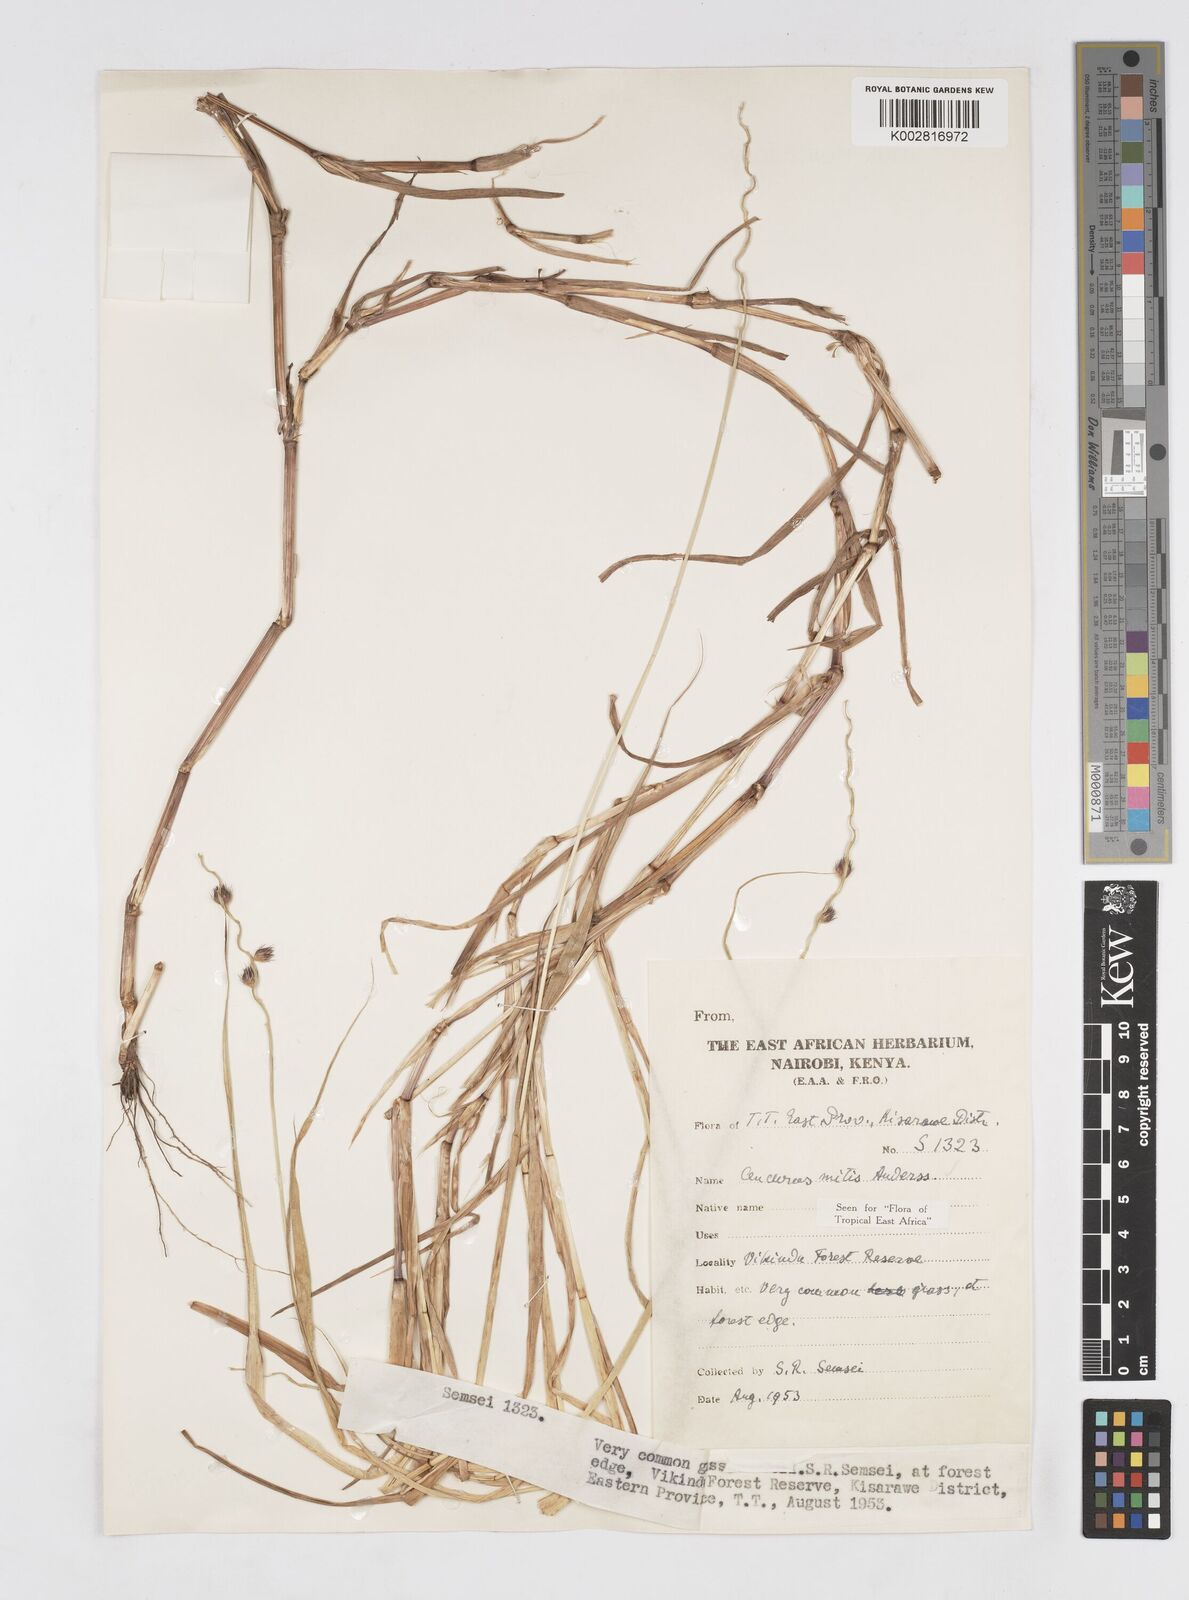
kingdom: Plantae
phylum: Tracheophyta
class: Liliopsida
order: Poales
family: Poaceae
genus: Cenchrus
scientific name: Cenchrus mitis
